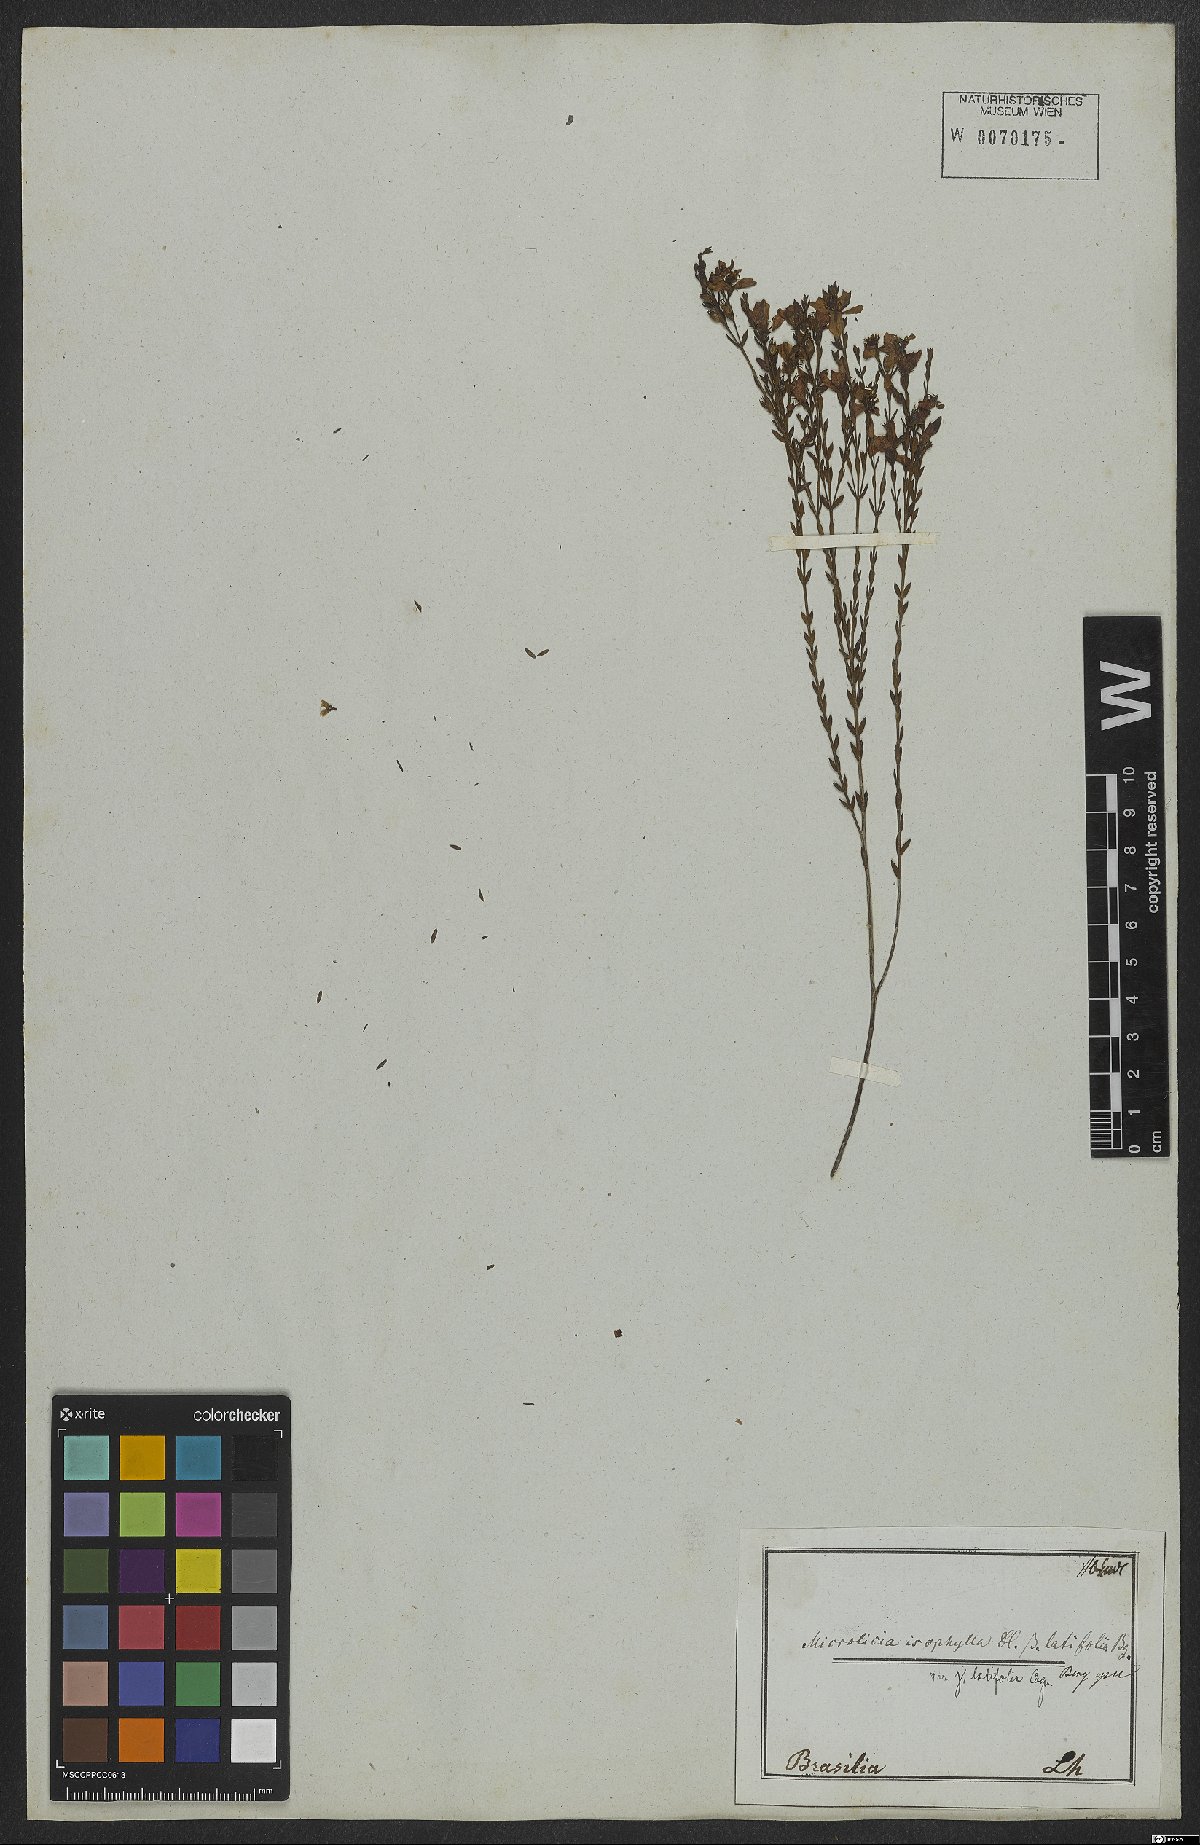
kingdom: Plantae
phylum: Tracheophyta
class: Magnoliopsida
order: Myrtales
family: Melastomataceae
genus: Microlicia
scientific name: Microlicia isophylla
